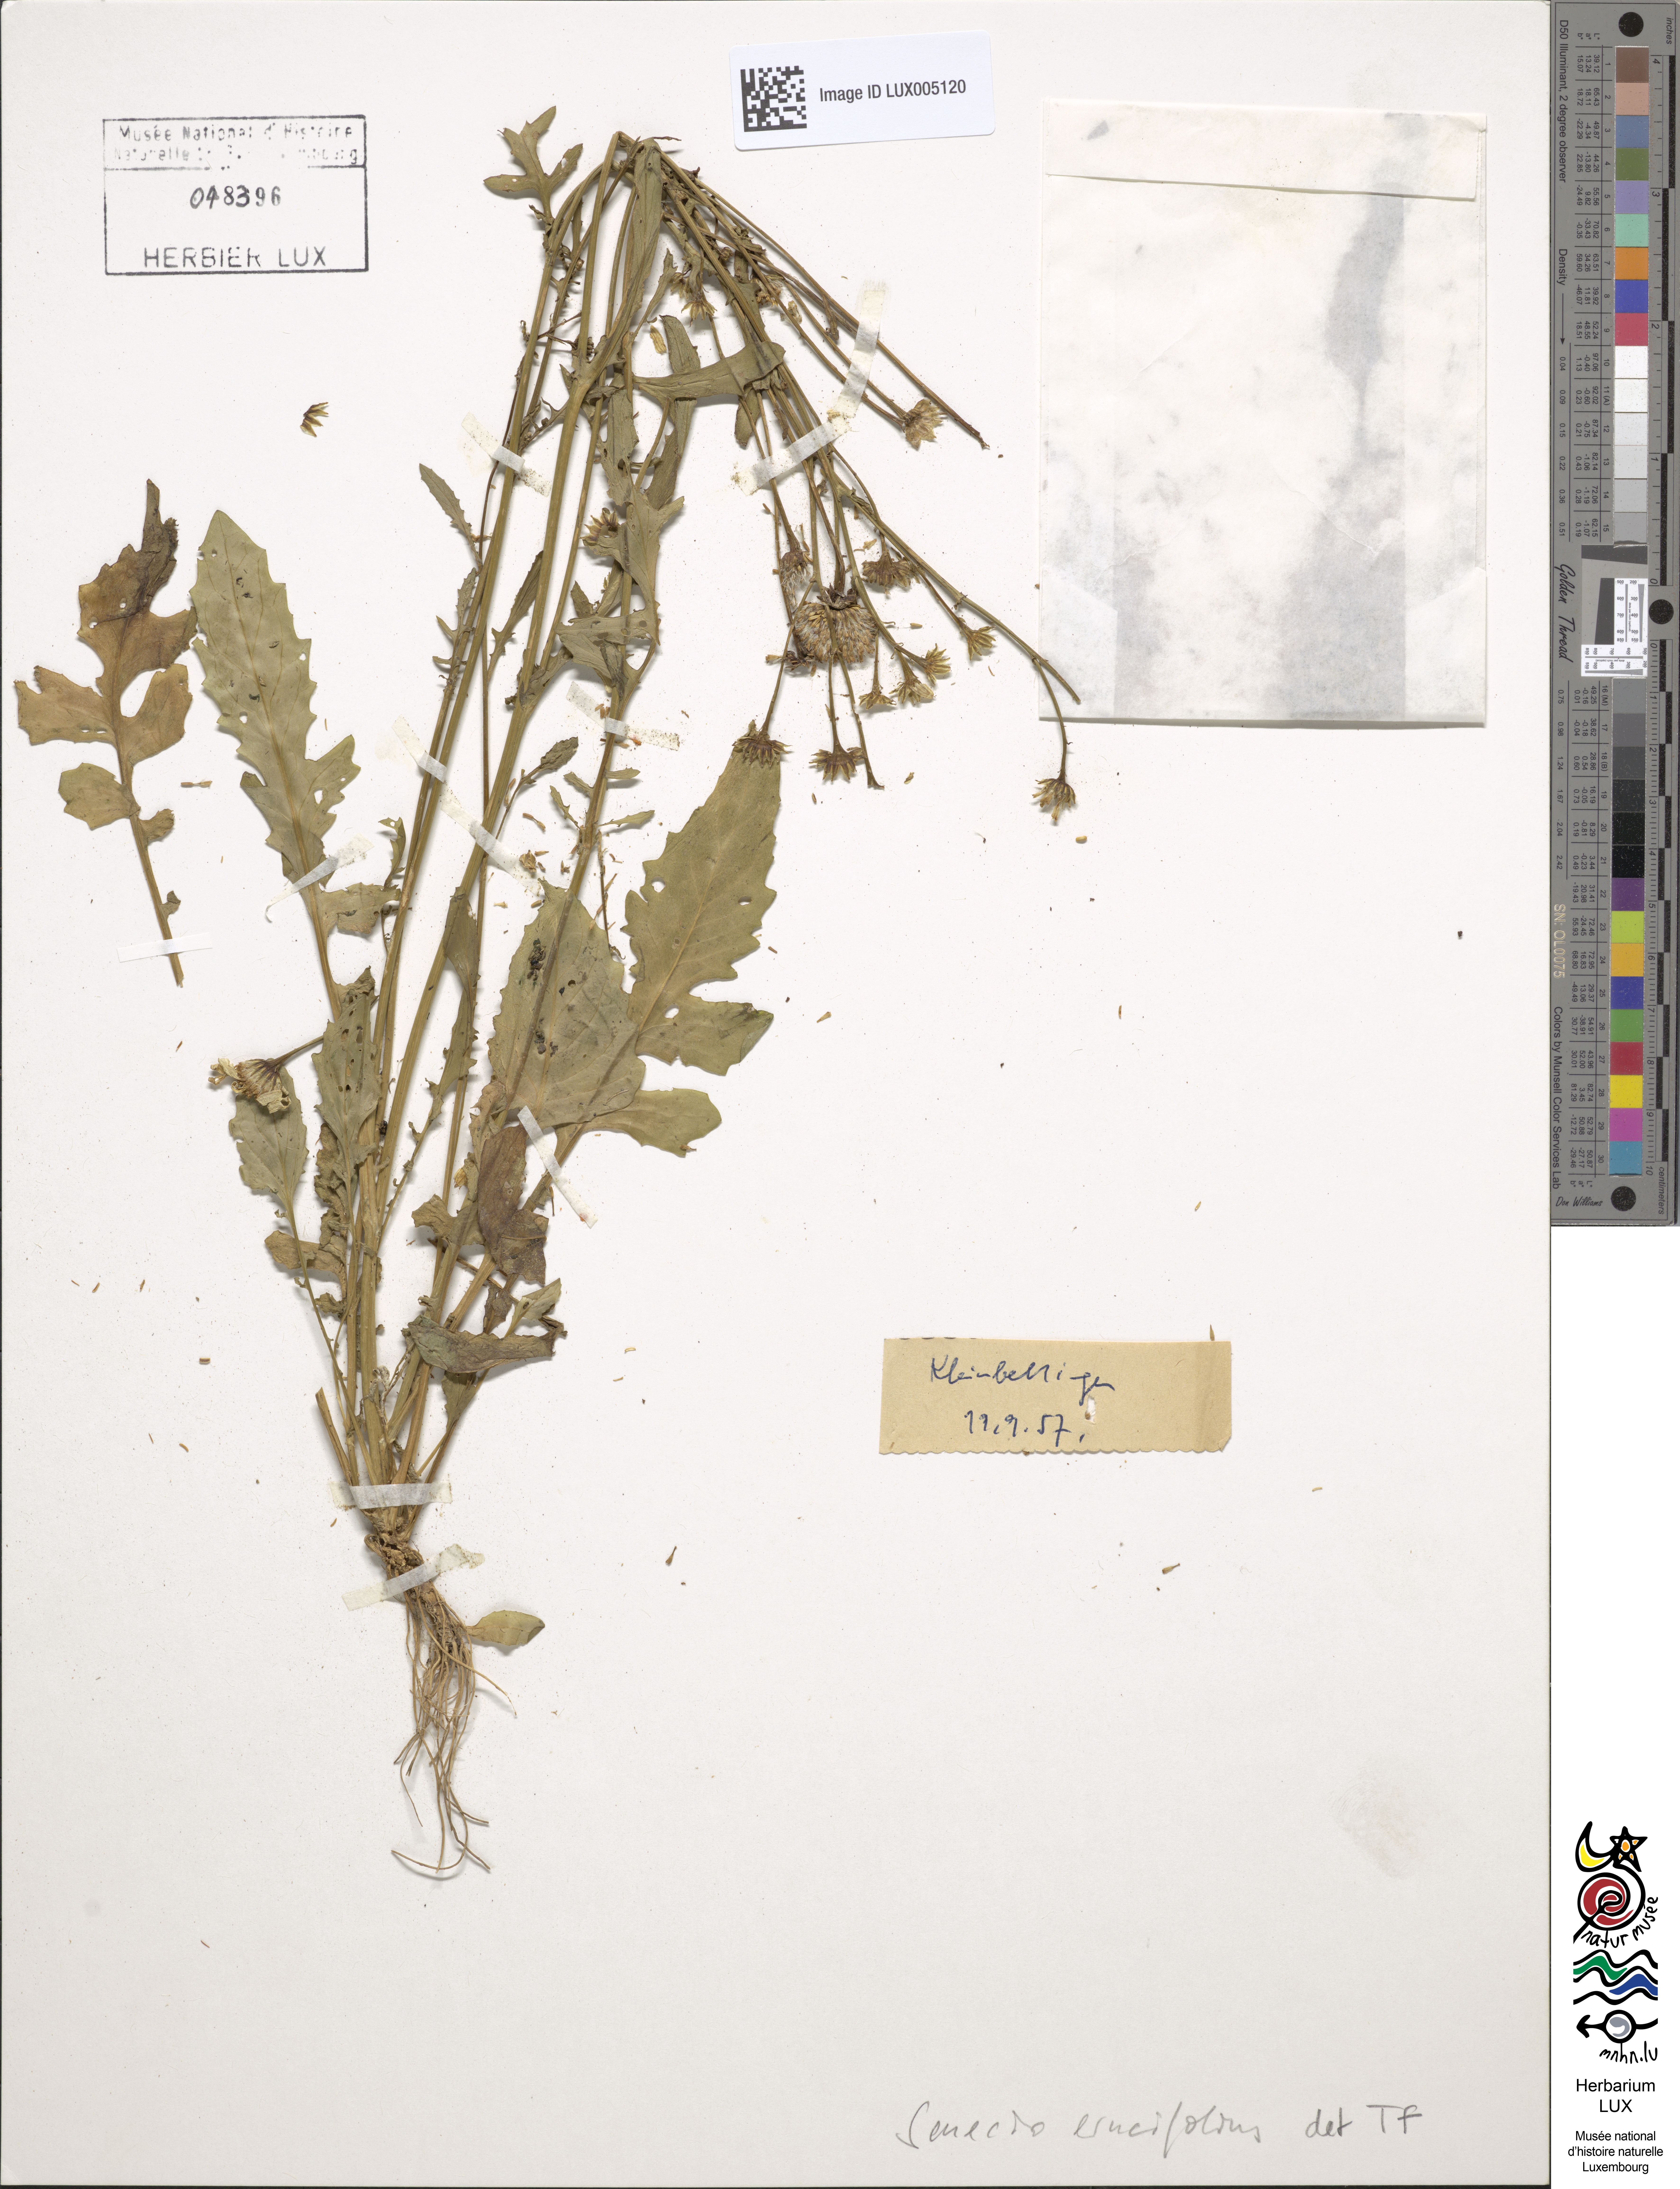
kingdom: Plantae
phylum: Tracheophyta
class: Magnoliopsida
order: Asterales
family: Asteraceae
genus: Jacobaea
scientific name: Jacobaea erucifolia
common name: Hoary ragwort
